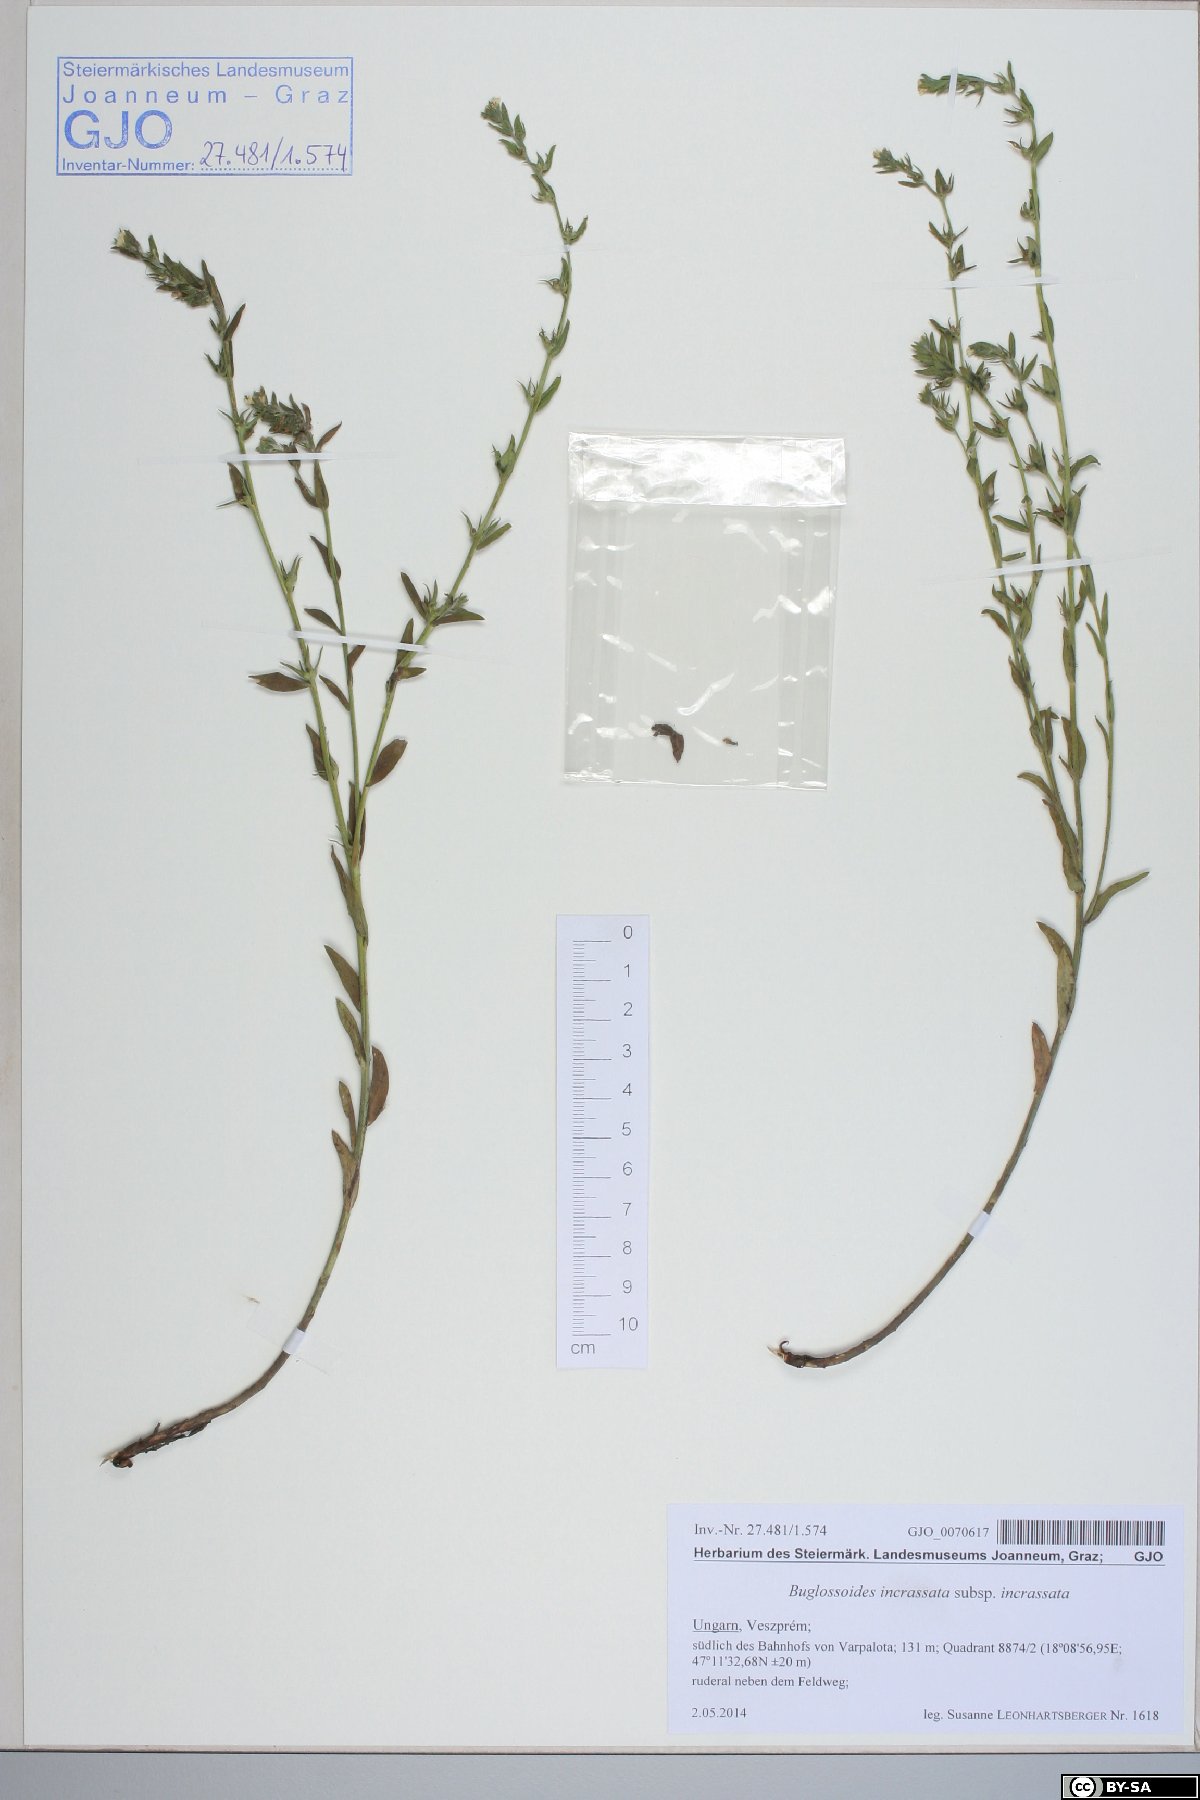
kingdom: Plantae
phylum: Tracheophyta
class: Magnoliopsida
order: Boraginales
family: Boraginaceae
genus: Buglossoides
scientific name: Buglossoides incrassata
